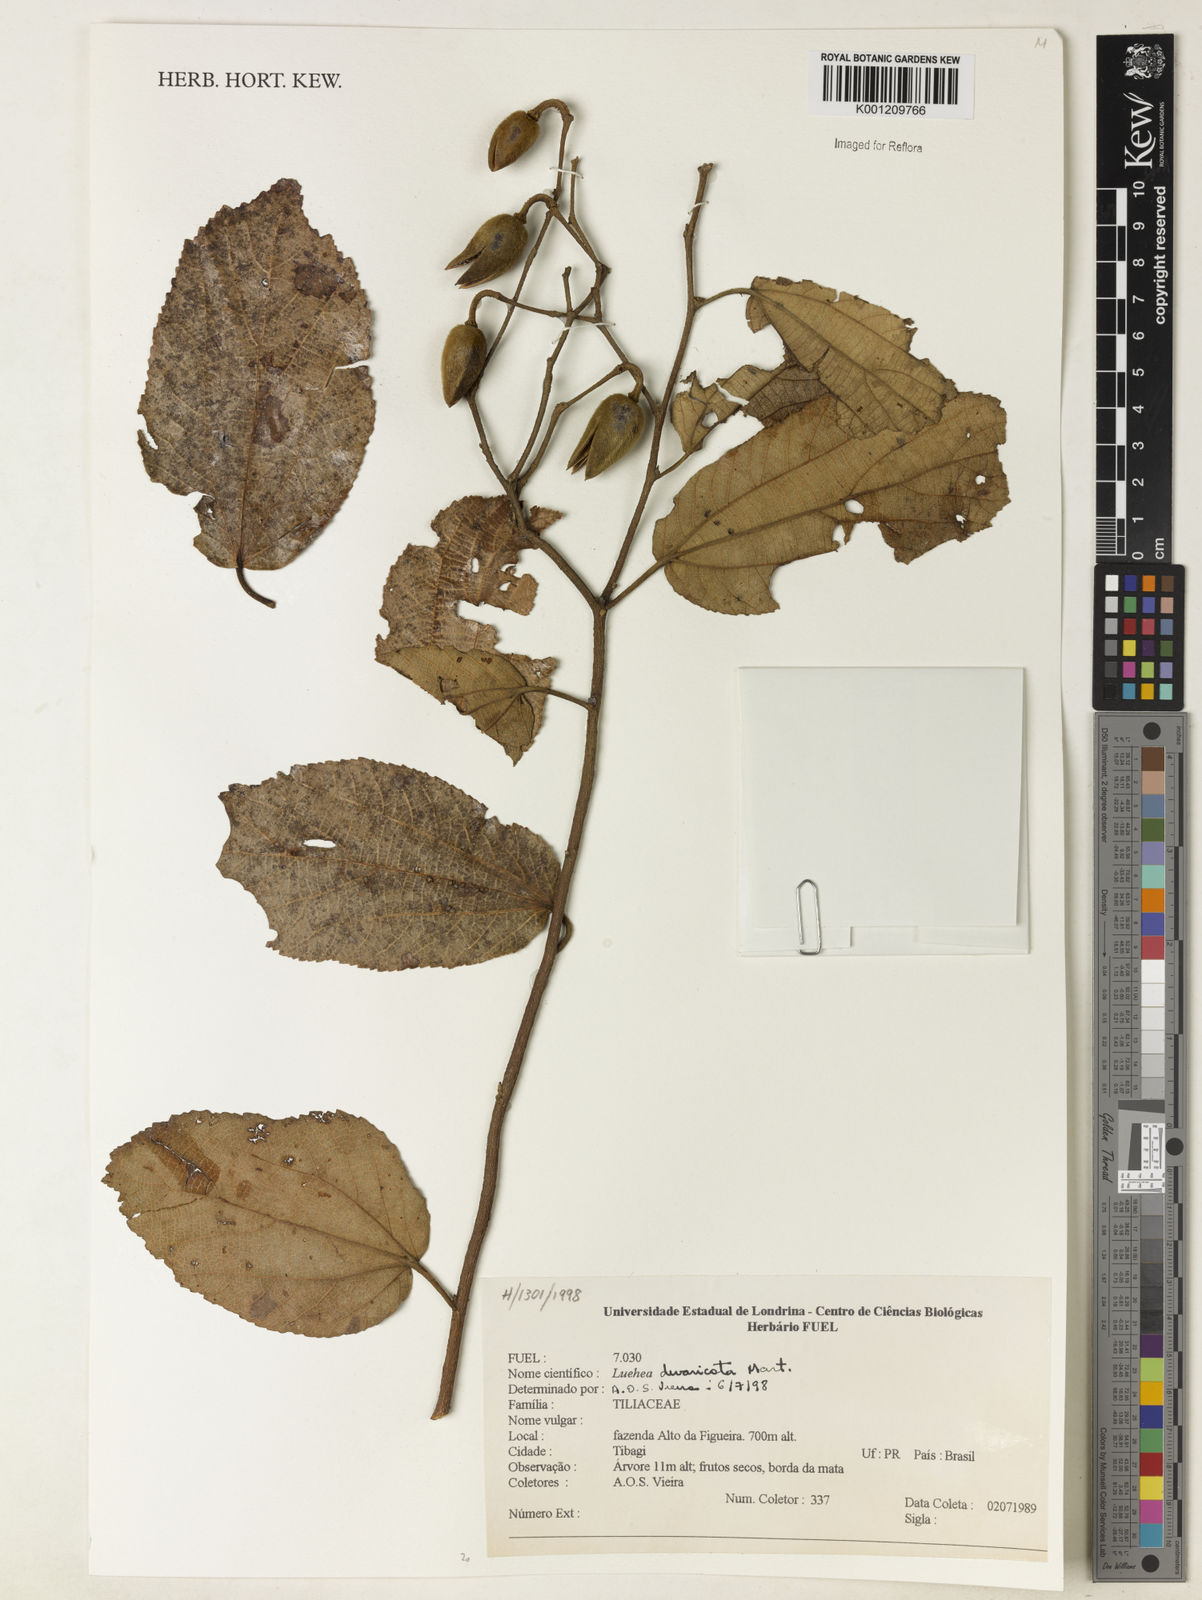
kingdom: Plantae
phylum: Tracheophyta
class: Magnoliopsida
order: Malvales
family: Malvaceae
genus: Luehea
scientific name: Luehea divaricata
